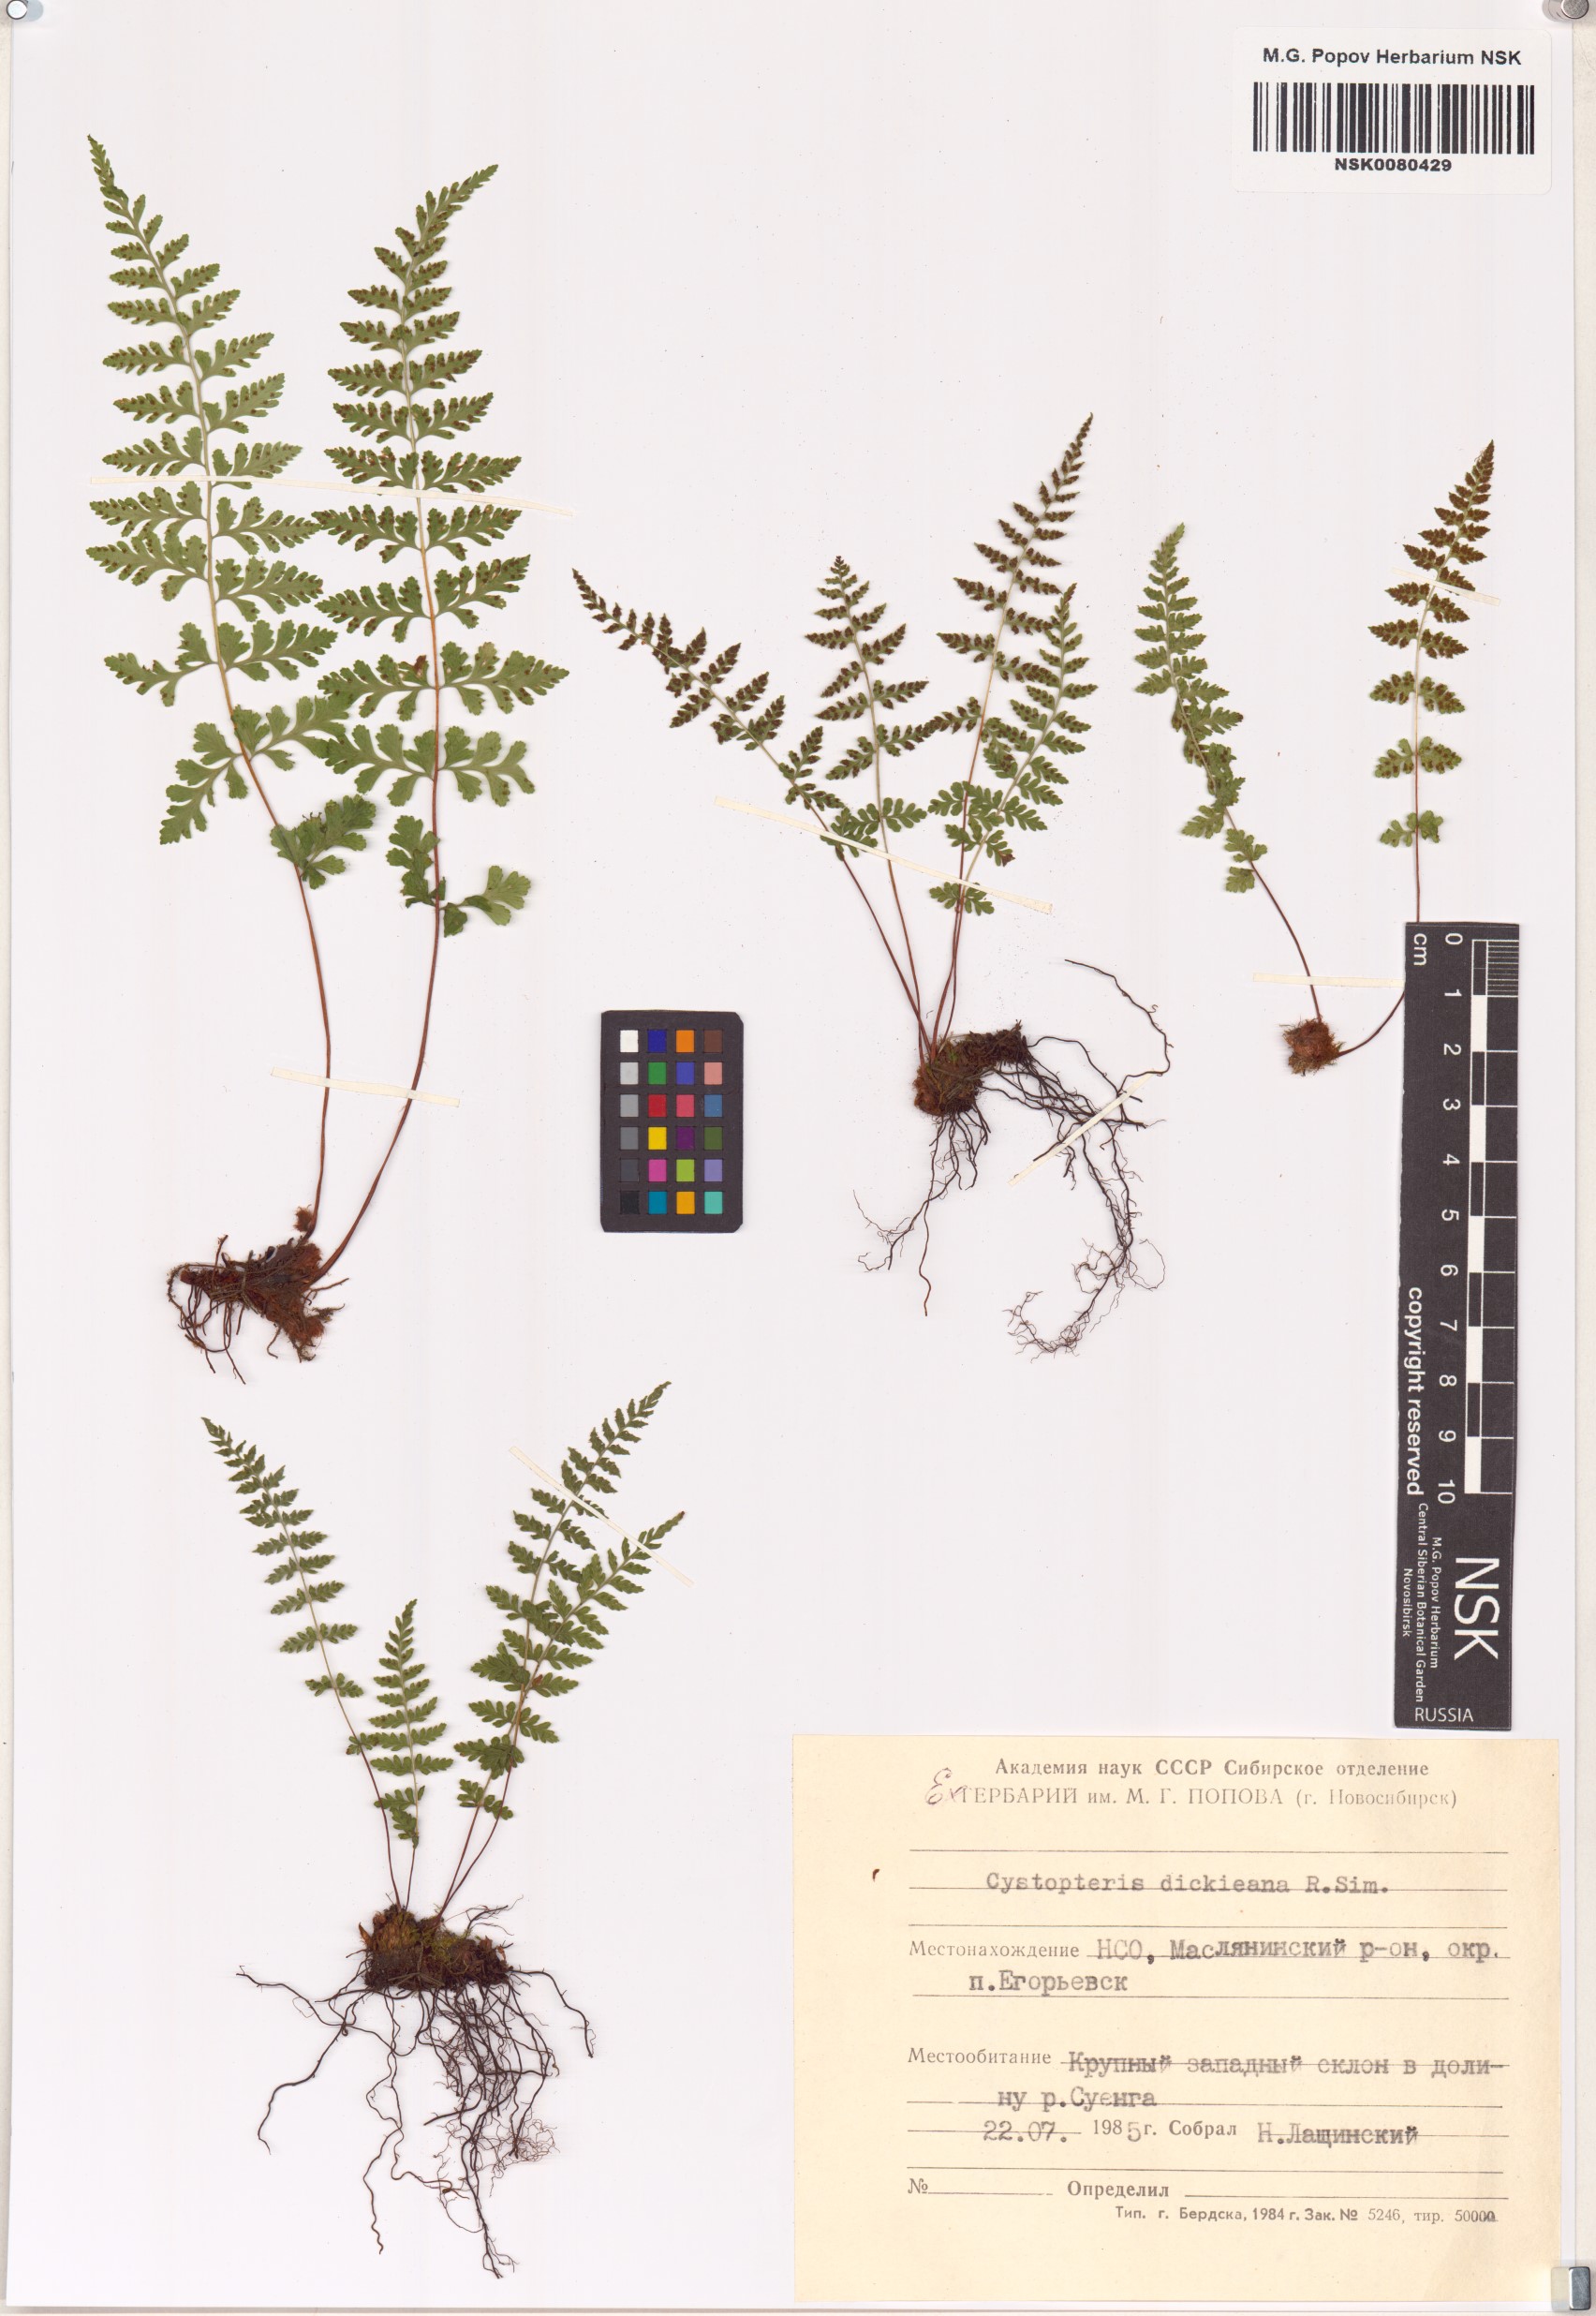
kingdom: Plantae
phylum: Tracheophyta
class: Polypodiopsida
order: Polypodiales
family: Cystopteridaceae
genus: Cystopteris
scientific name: Cystopteris dickieana
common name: Dickie's bladder-fern
